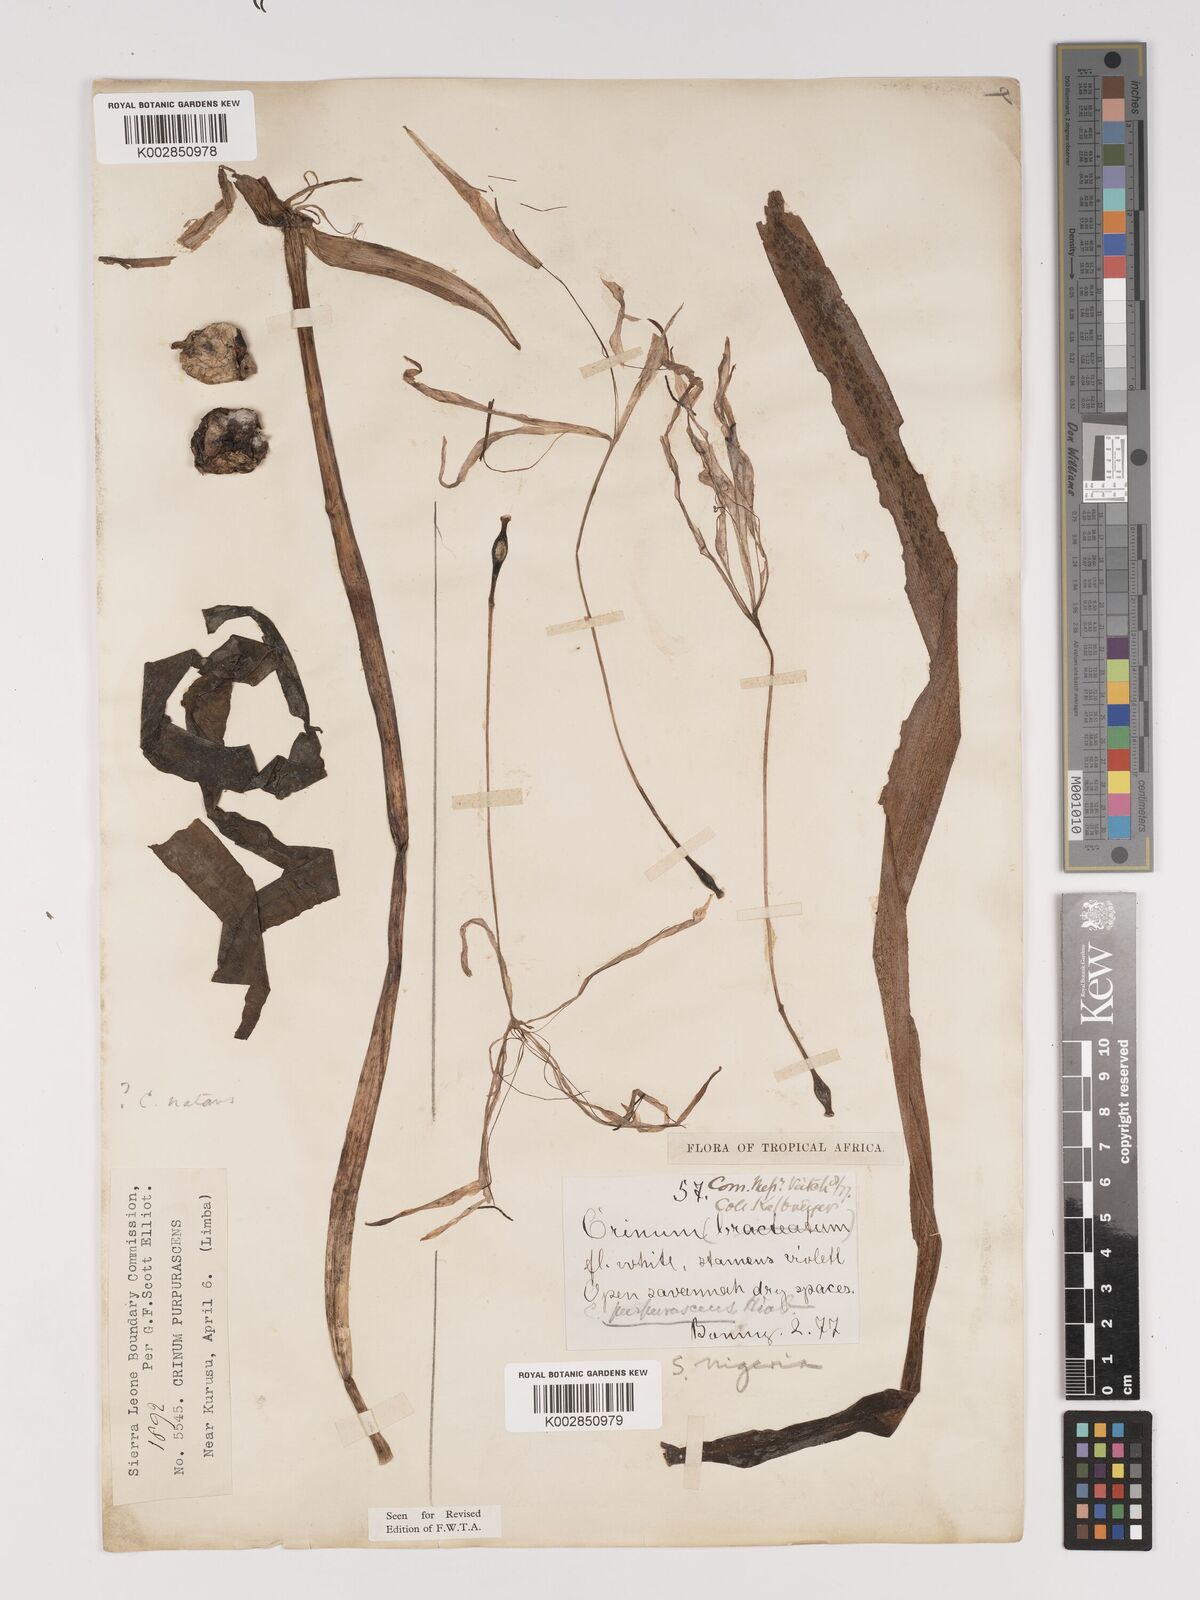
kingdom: Plantae
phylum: Tracheophyta
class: Liliopsida
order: Asparagales
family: Amaryllidaceae
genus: Crinum
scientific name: Crinum purpurascens
